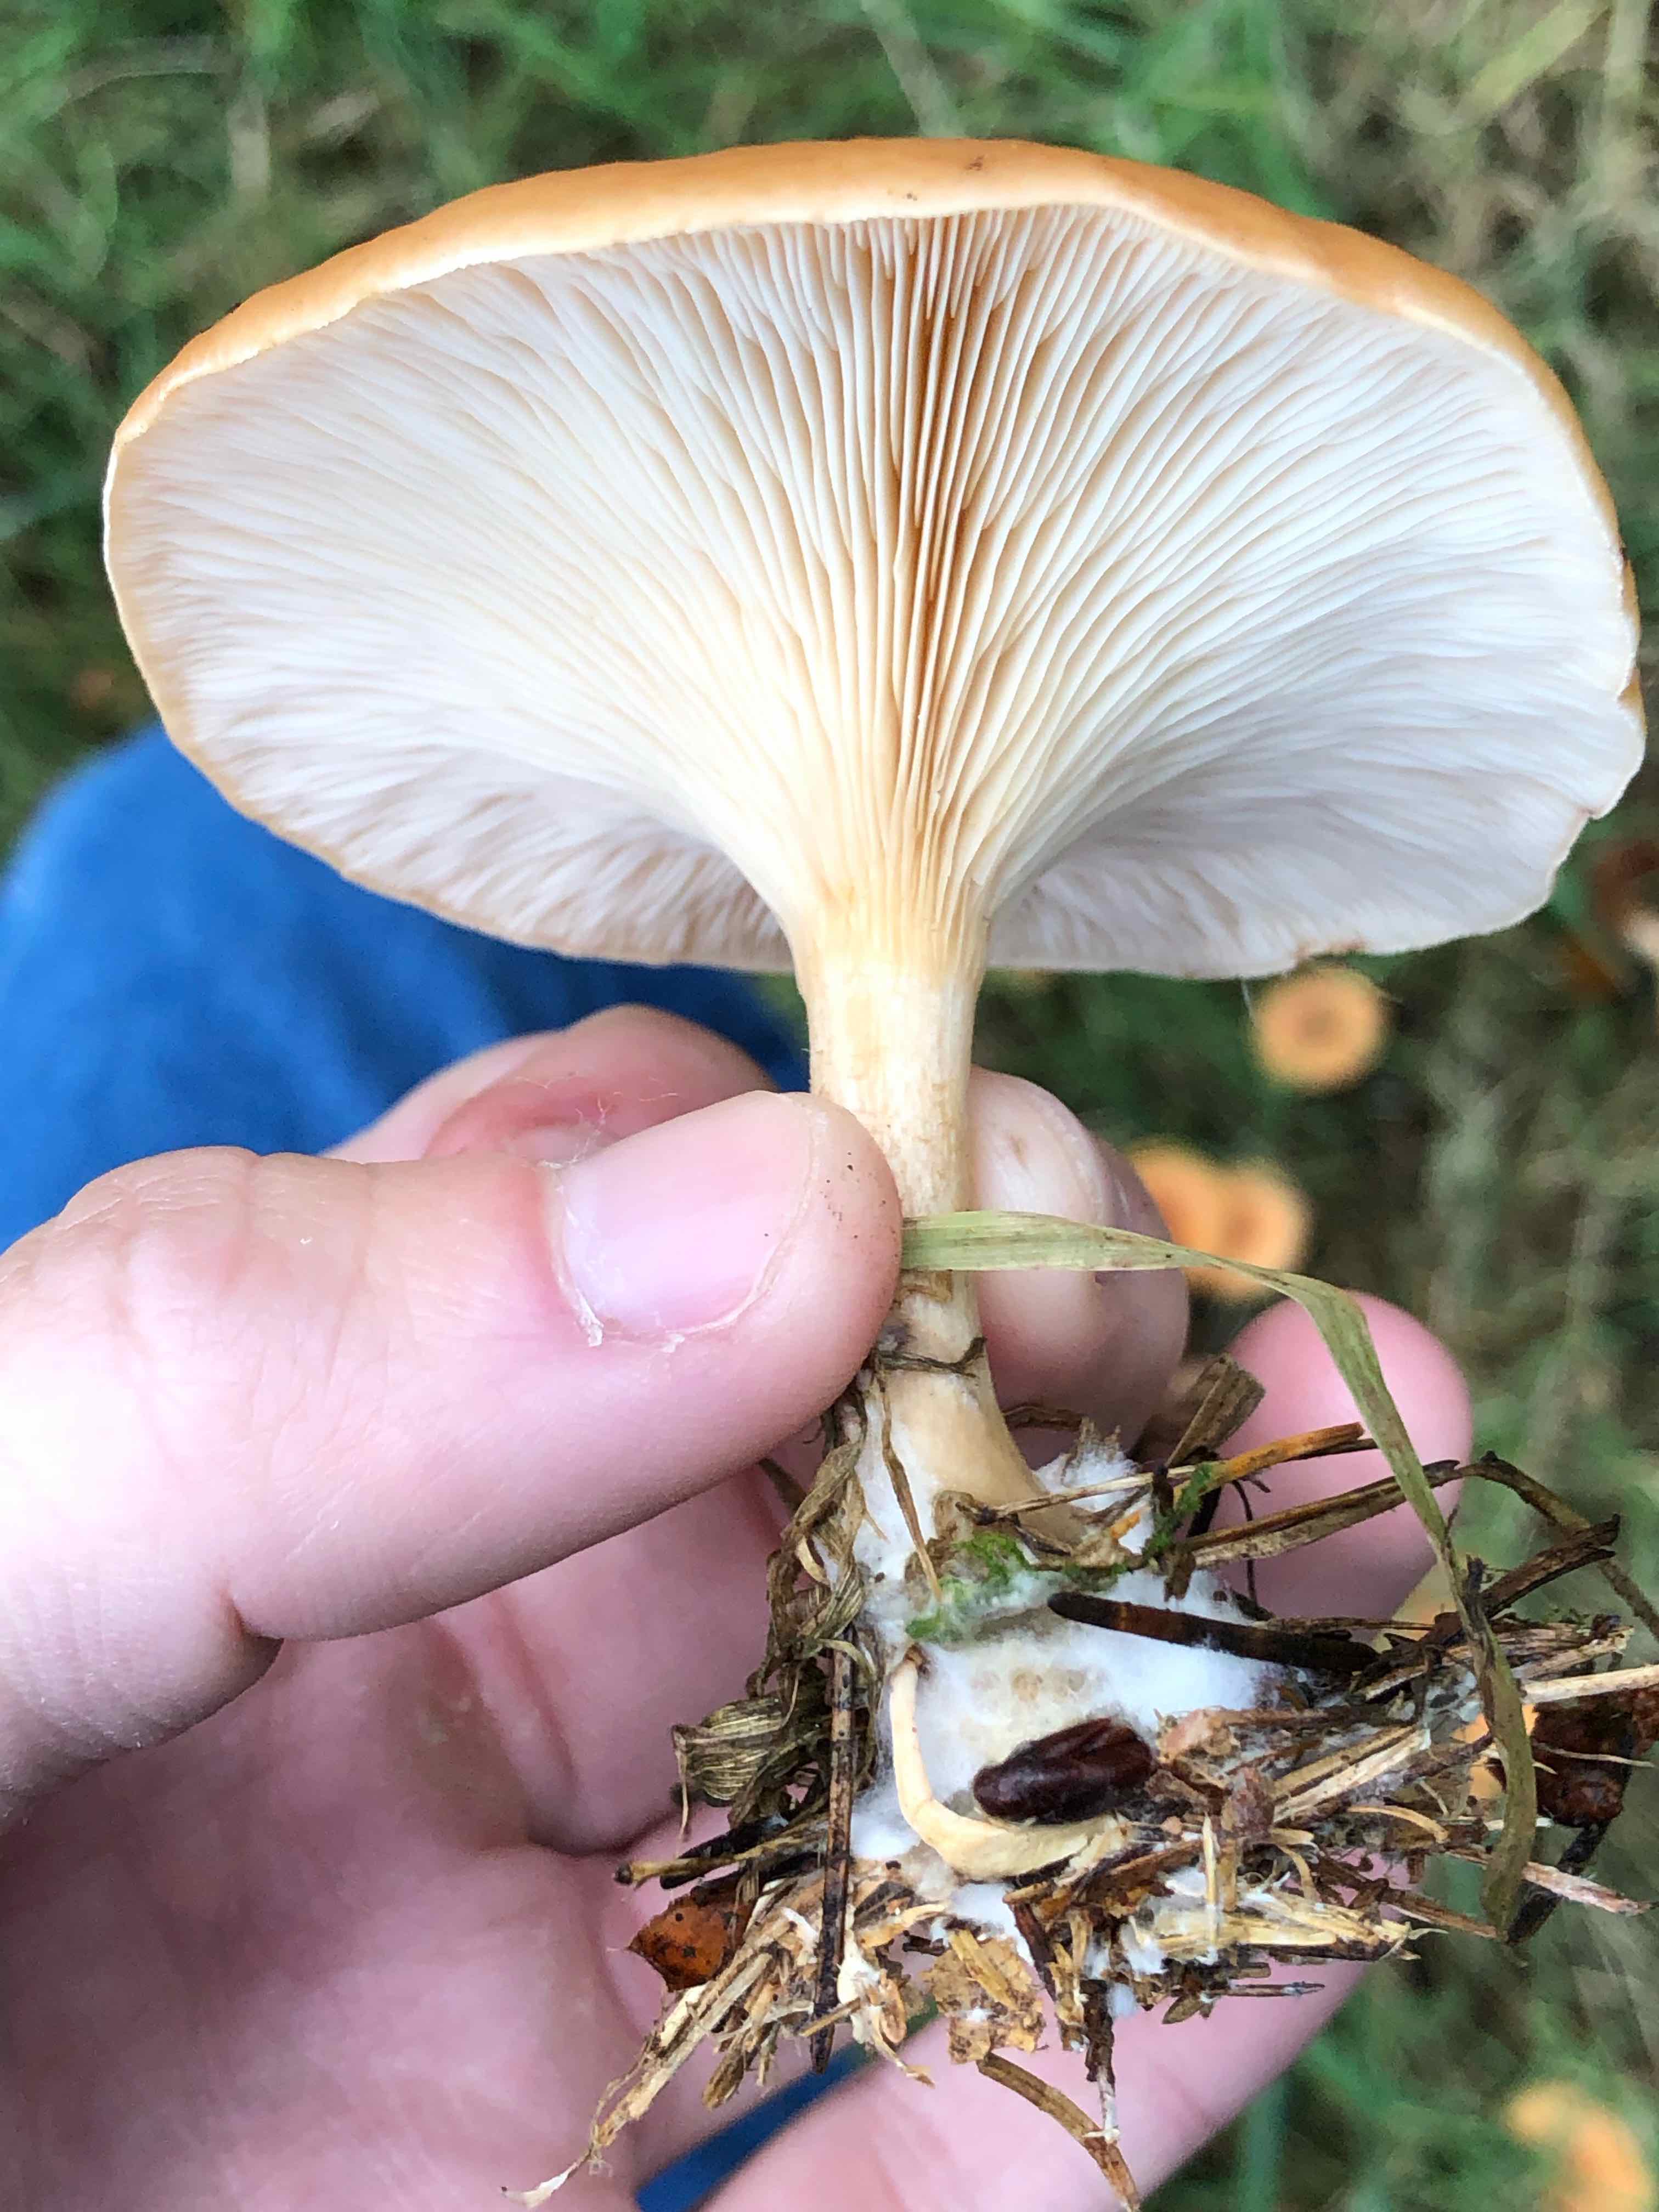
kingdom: Fungi
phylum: Basidiomycota
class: Agaricomycetes
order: Agaricales
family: Tricholomataceae
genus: Paralepista
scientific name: Paralepista flaccida
